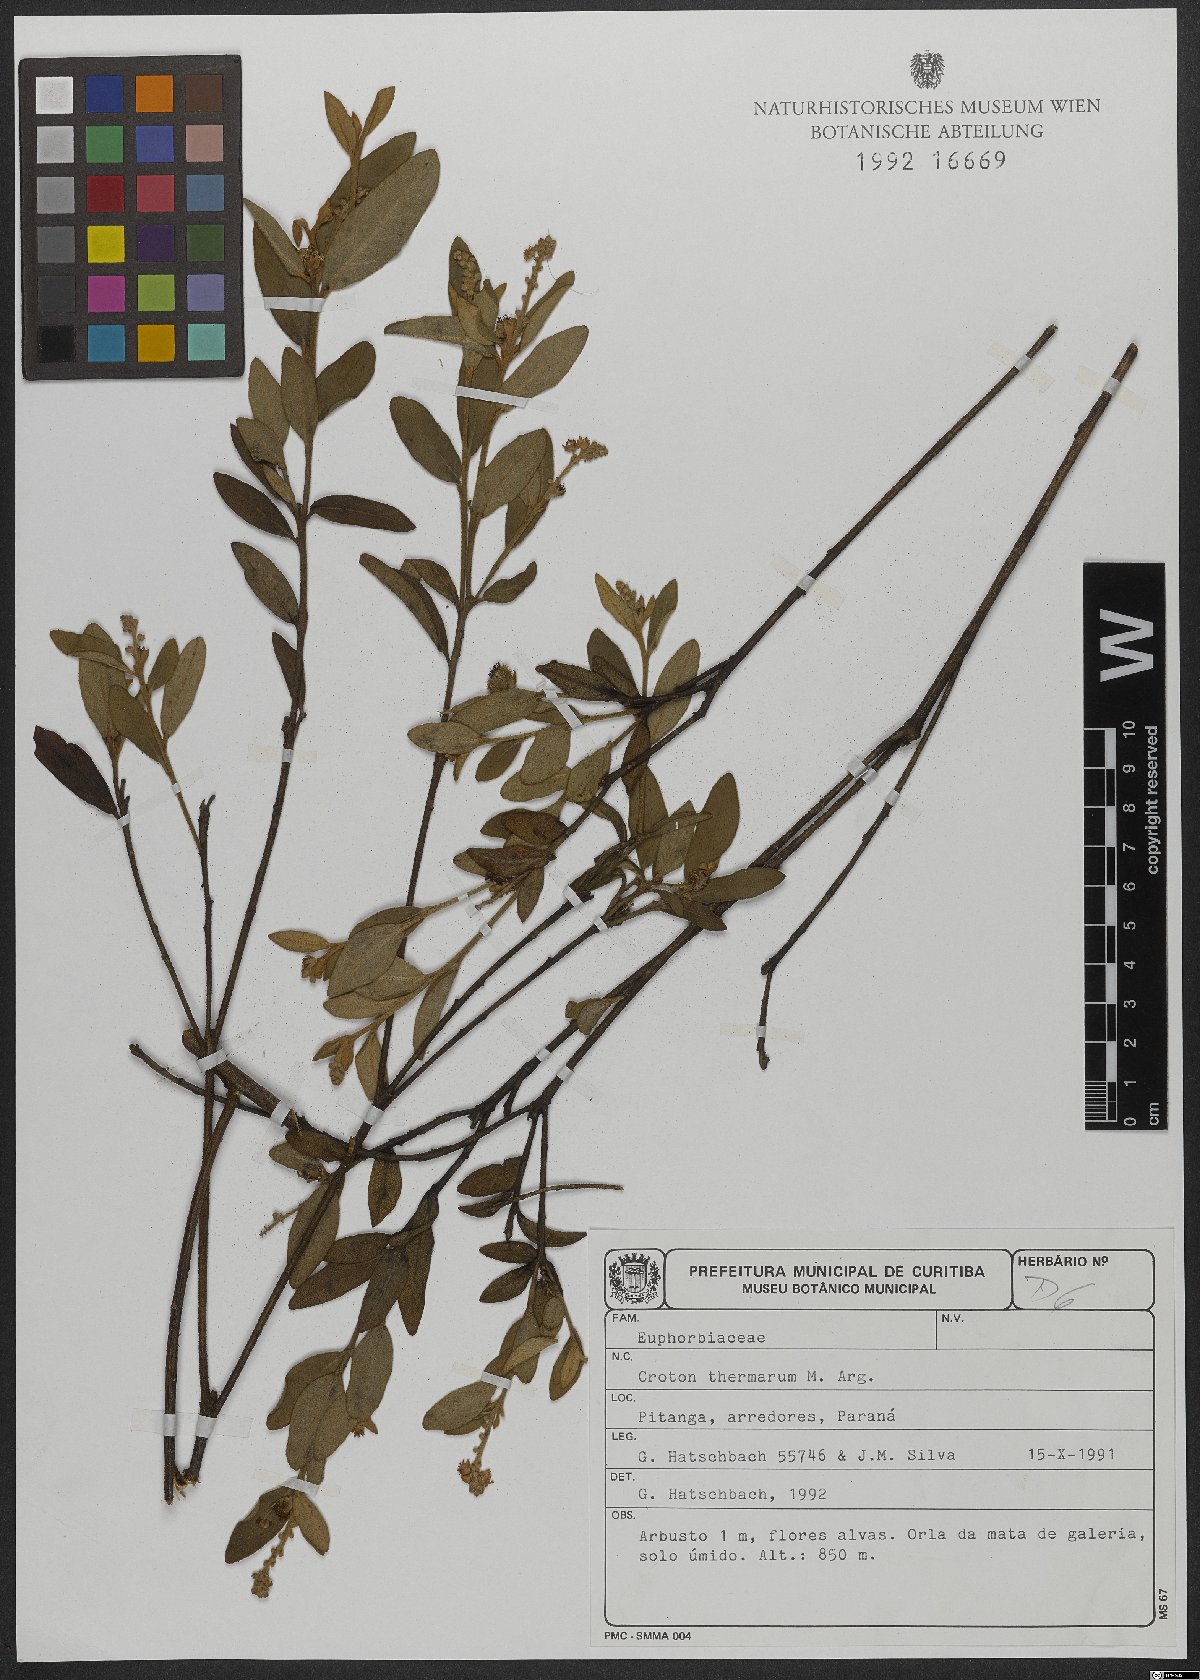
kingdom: Plantae
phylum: Tracheophyta
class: Magnoliopsida
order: Malpighiales
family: Euphorbiaceae
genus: Croton
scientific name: Croton lanatus
